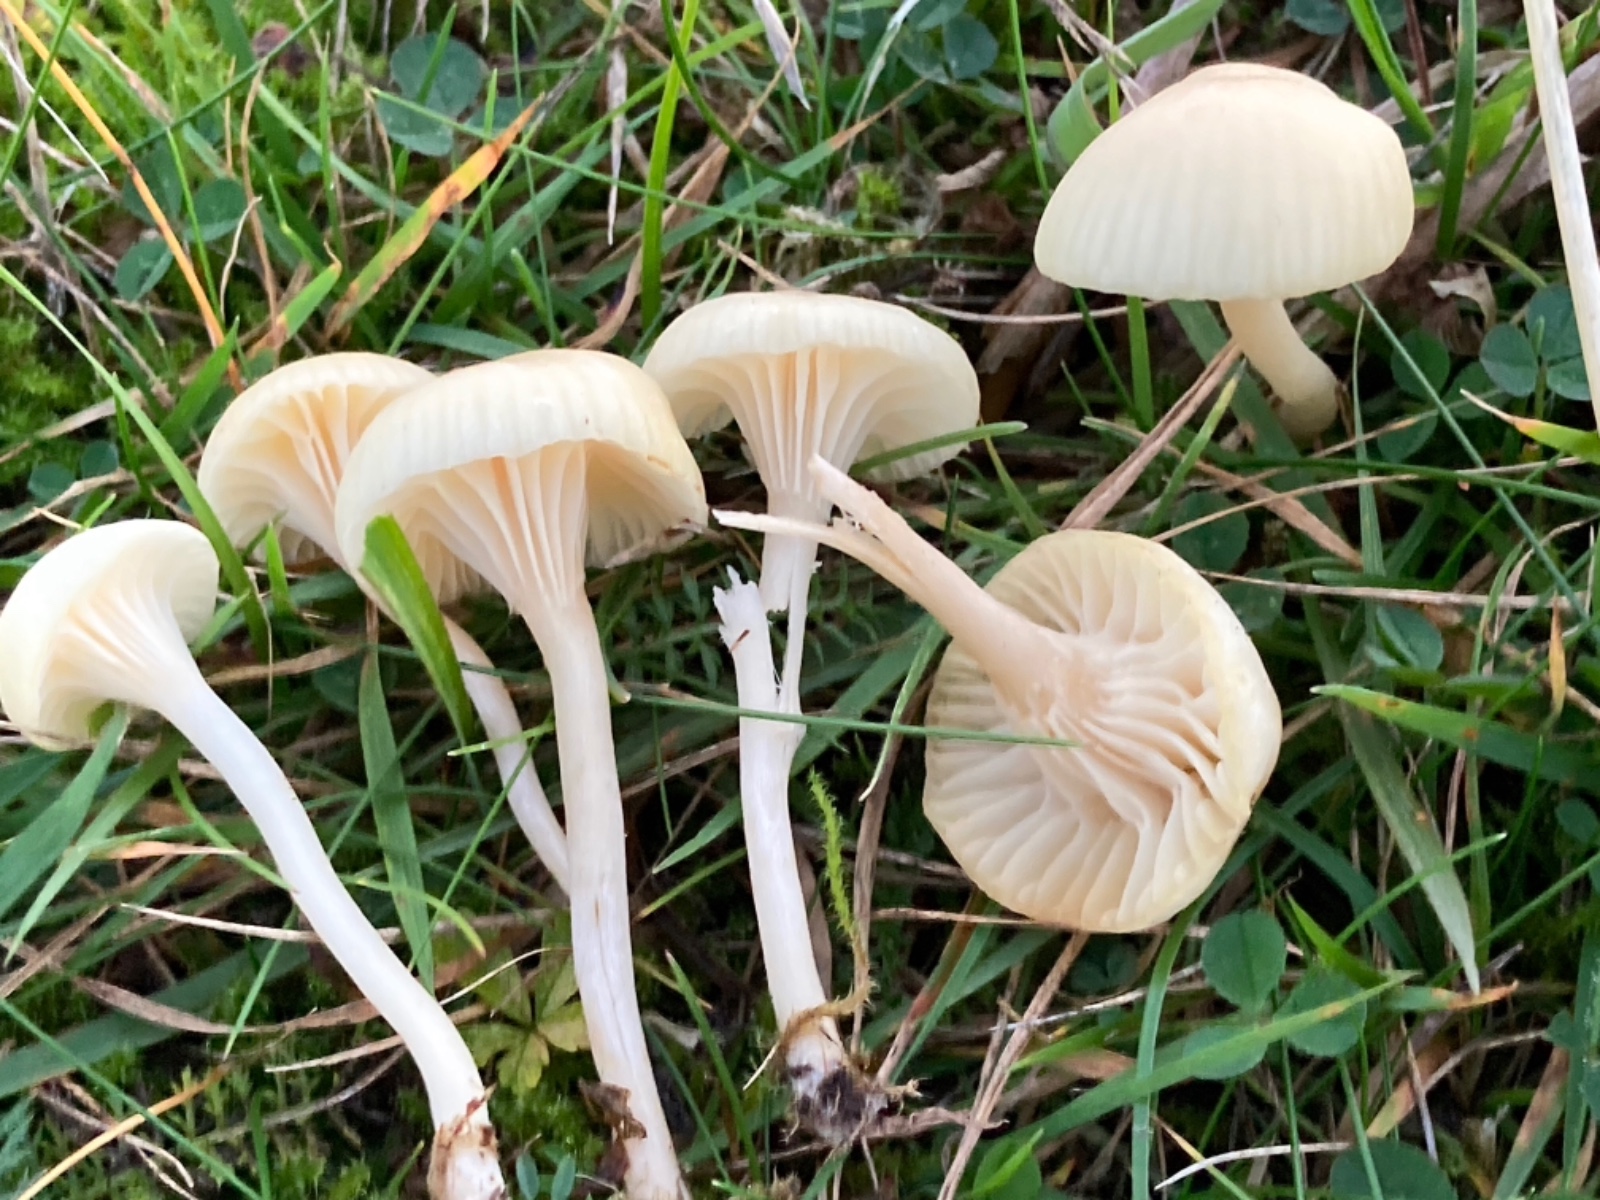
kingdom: Fungi
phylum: Basidiomycota
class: Agaricomycetes
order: Agaricales
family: Hygrophoraceae
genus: Cuphophyllus
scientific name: Cuphophyllus
